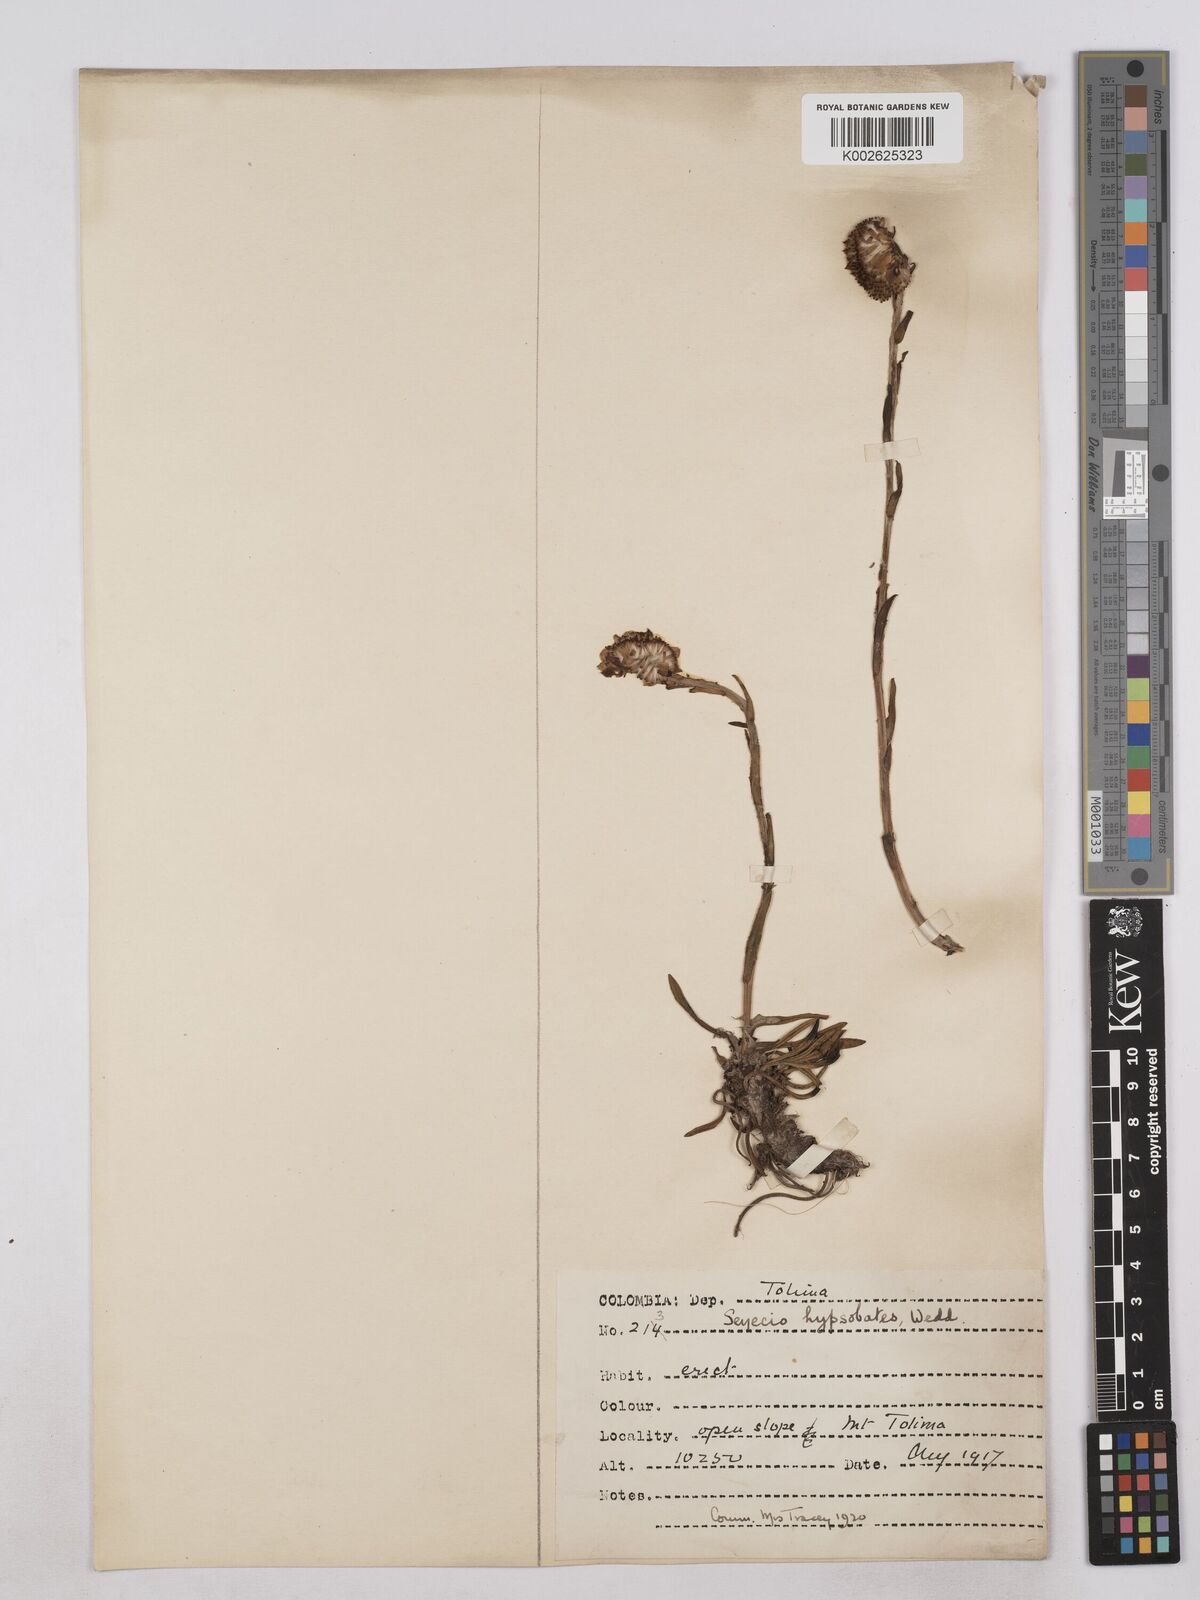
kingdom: Plantae
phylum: Tracheophyta
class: Magnoliopsida
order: Asterales
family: Asteraceae
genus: Senecio
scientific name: Senecio hypsobates
